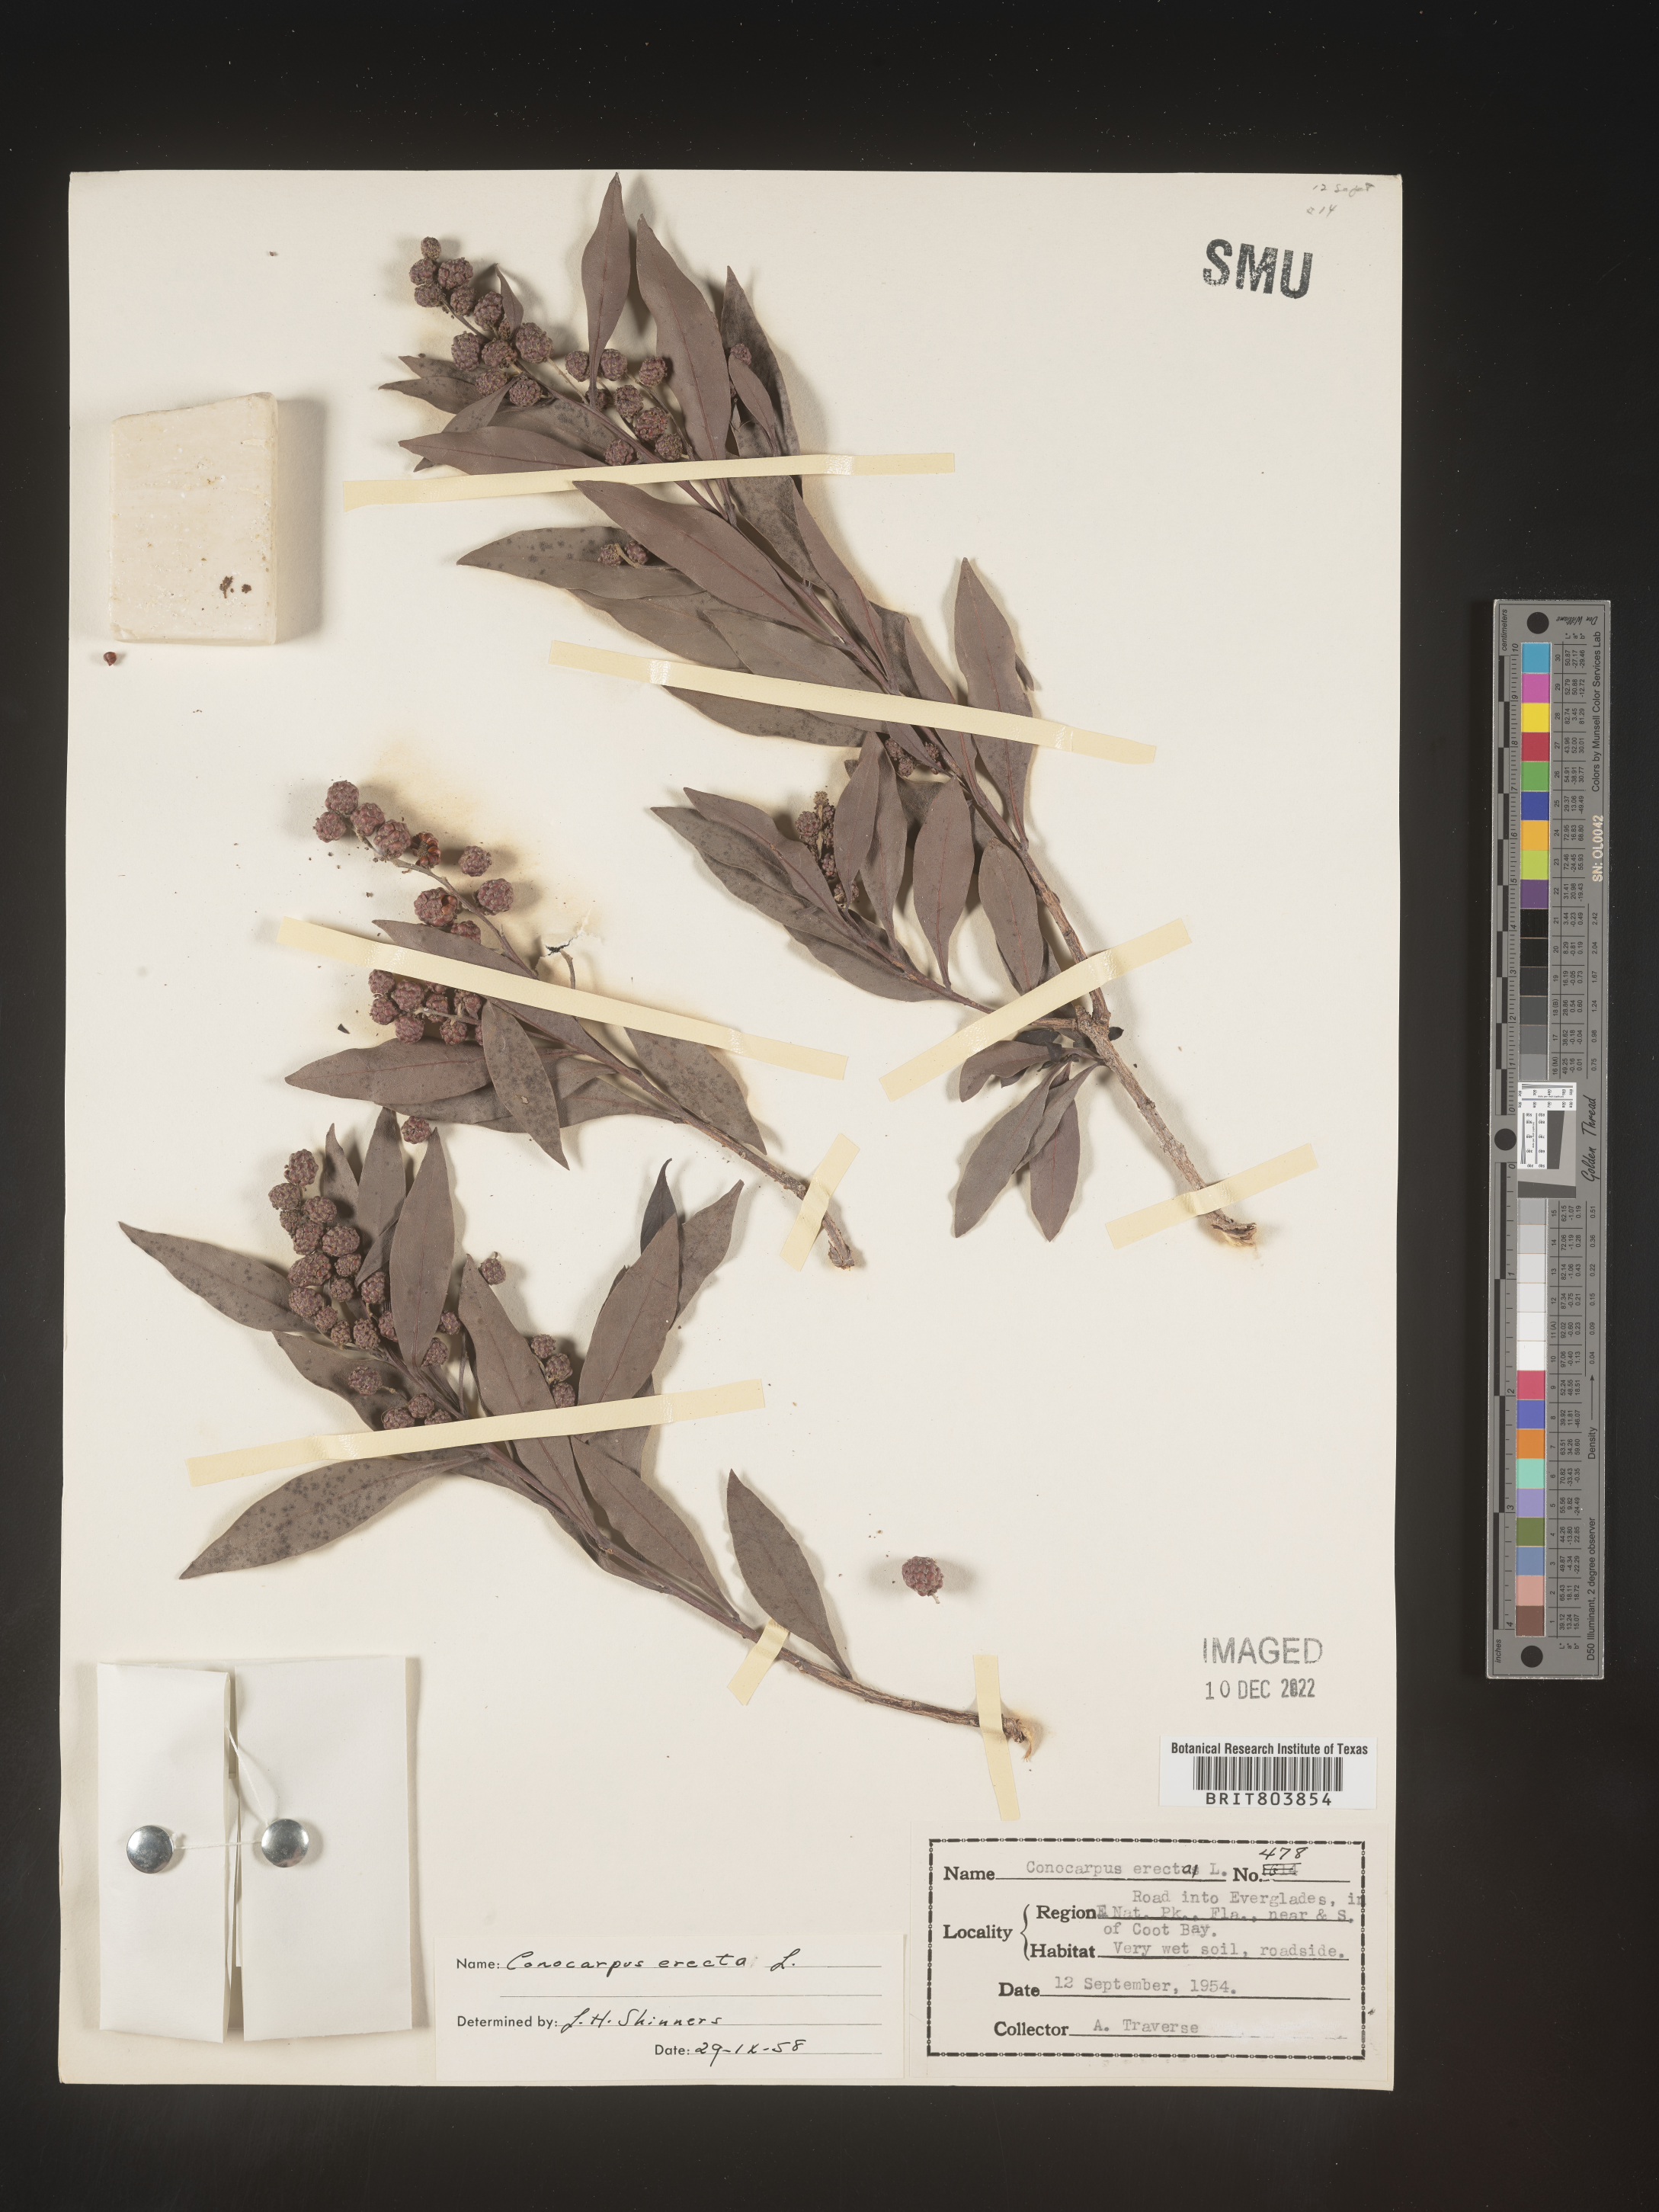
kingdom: Plantae
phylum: Tracheophyta
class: Magnoliopsida
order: Myrtales
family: Combretaceae
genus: Conocarpus
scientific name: Conocarpus erectus
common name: Button mangrove
